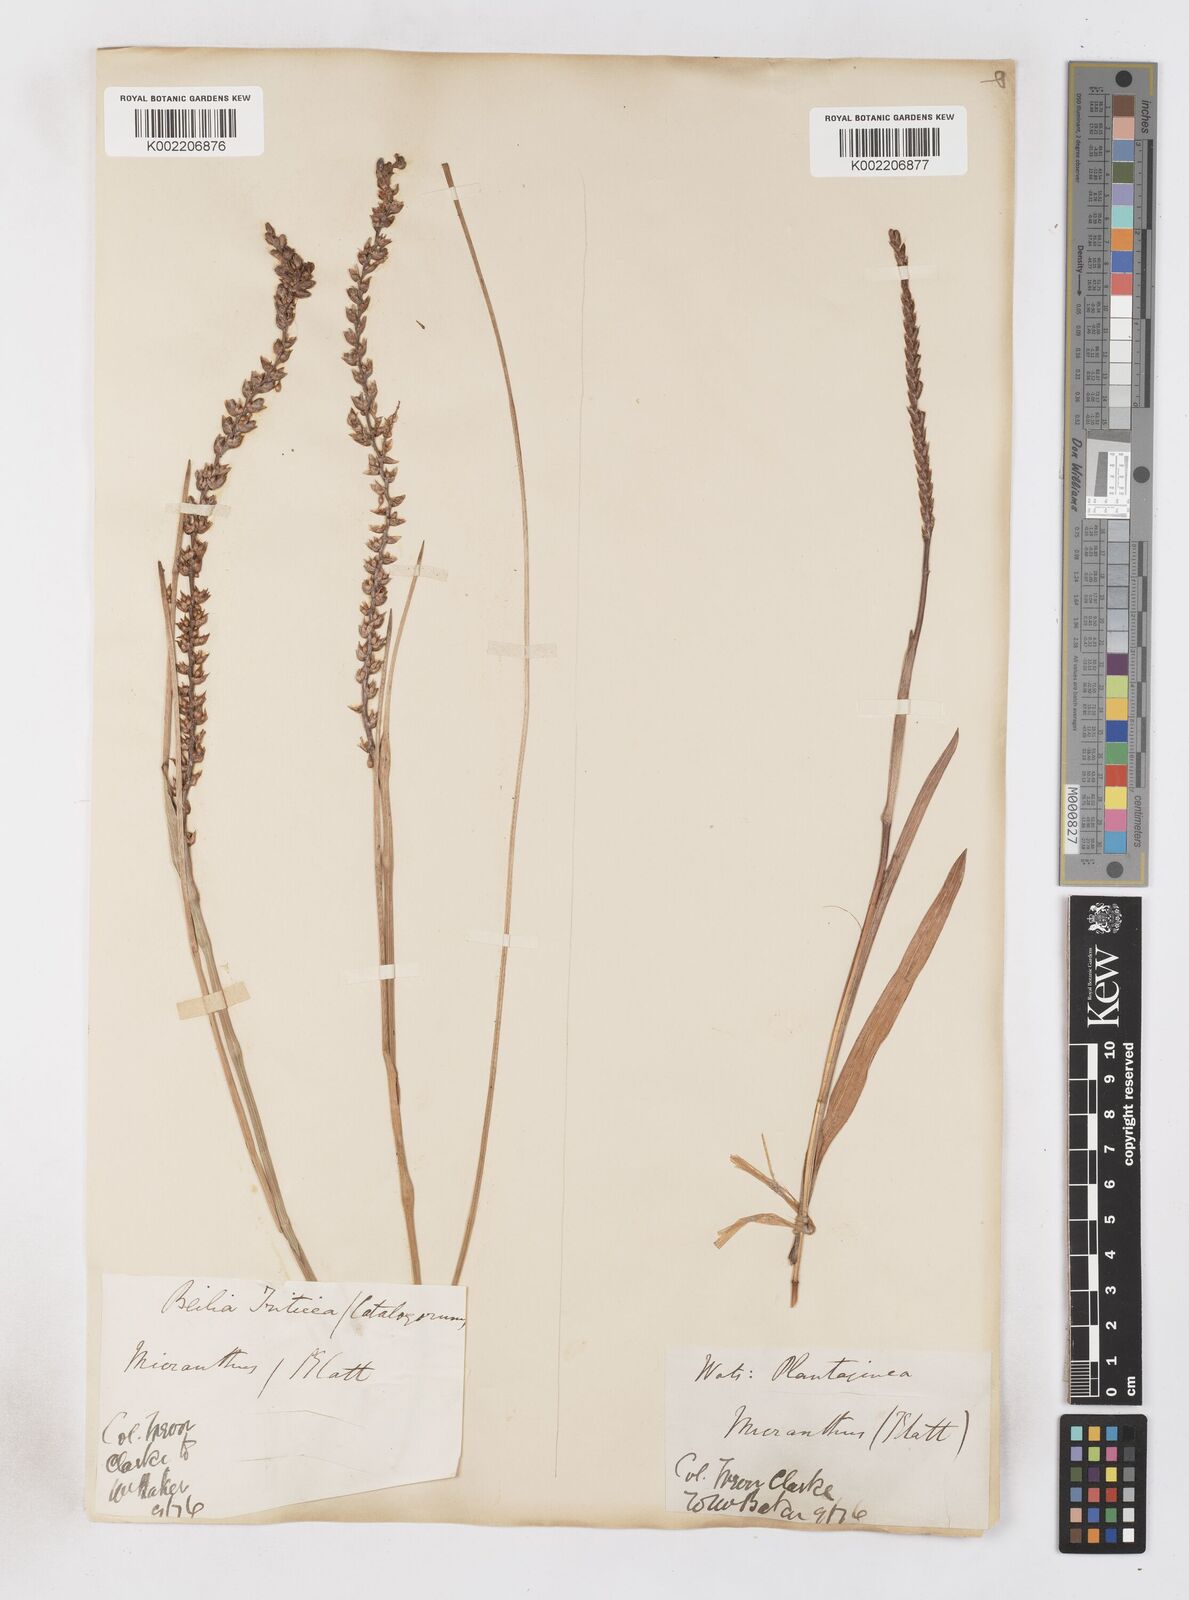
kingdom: Plantae
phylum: Tracheophyta
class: Liliopsida
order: Asparagales
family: Iridaceae
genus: Micranthus
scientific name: Micranthus plantagineus
